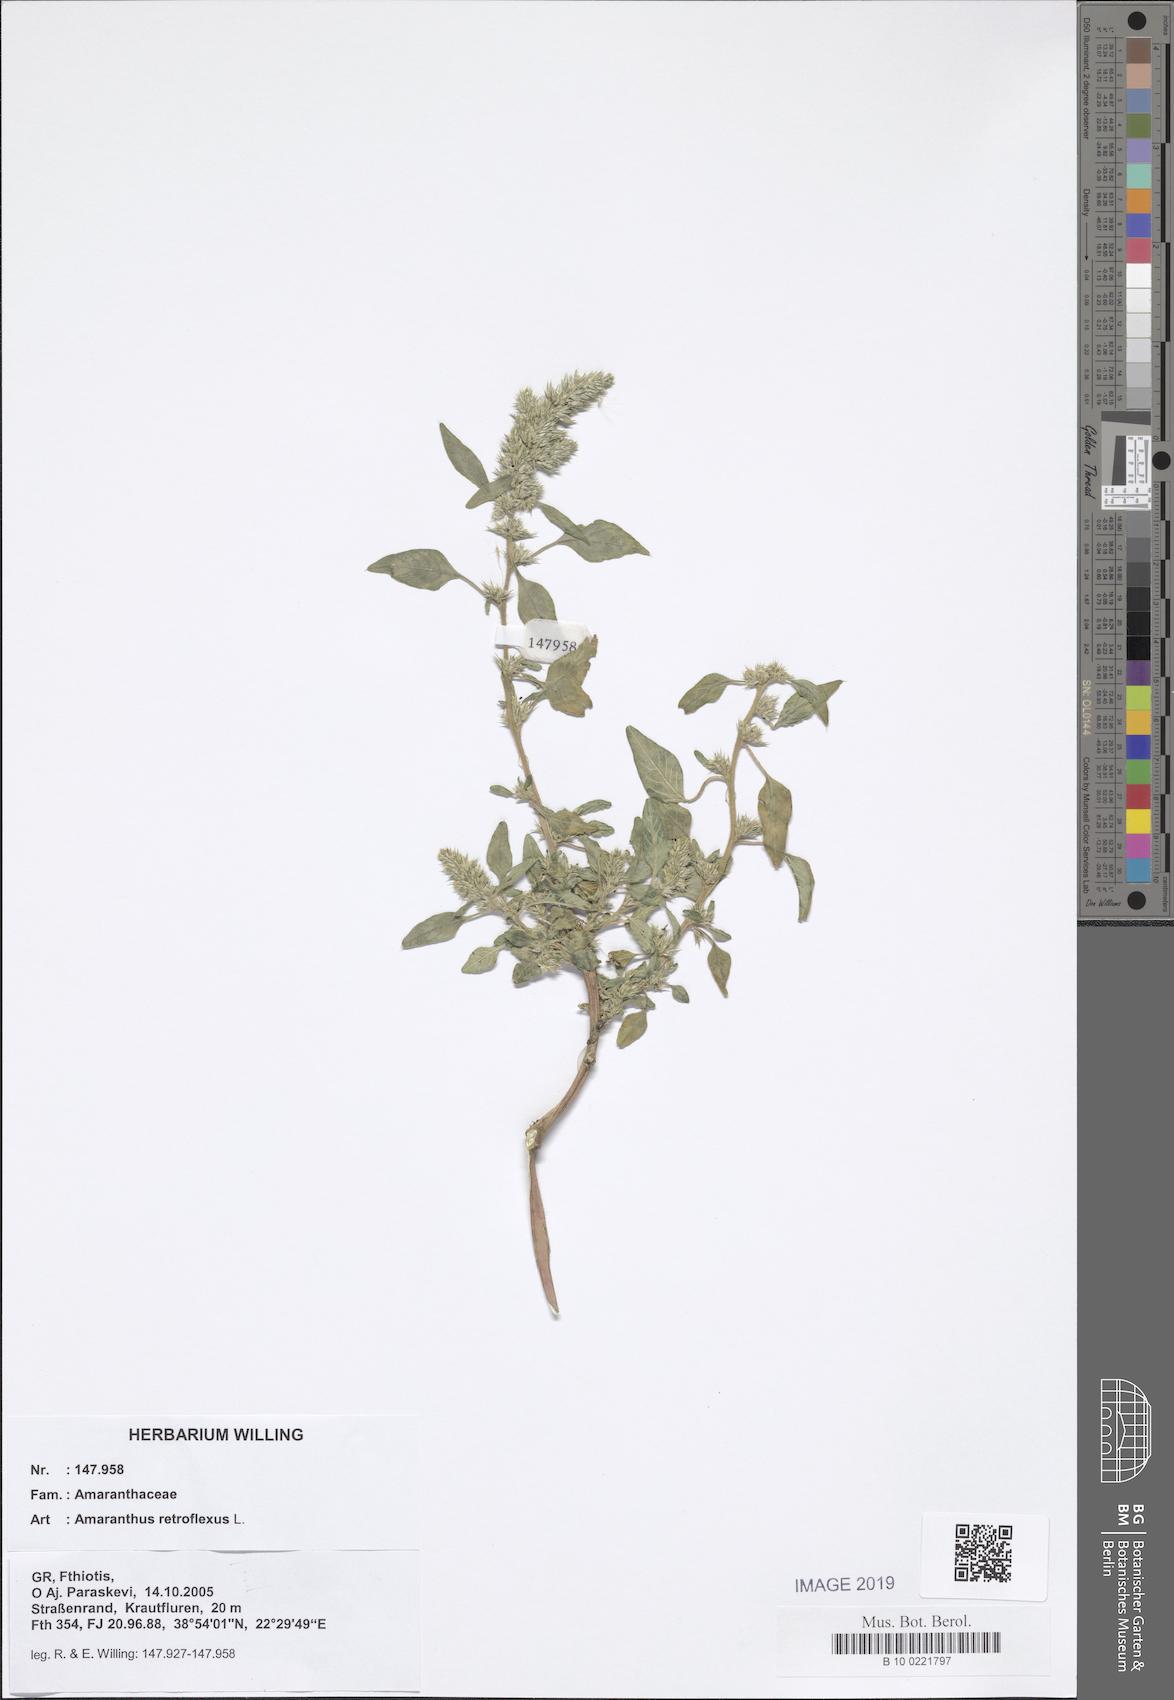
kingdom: Plantae
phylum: Tracheophyta
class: Magnoliopsida
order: Caryophyllales
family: Amaranthaceae
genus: Amaranthus
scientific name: Amaranthus retroflexus
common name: Redroot amaranth
